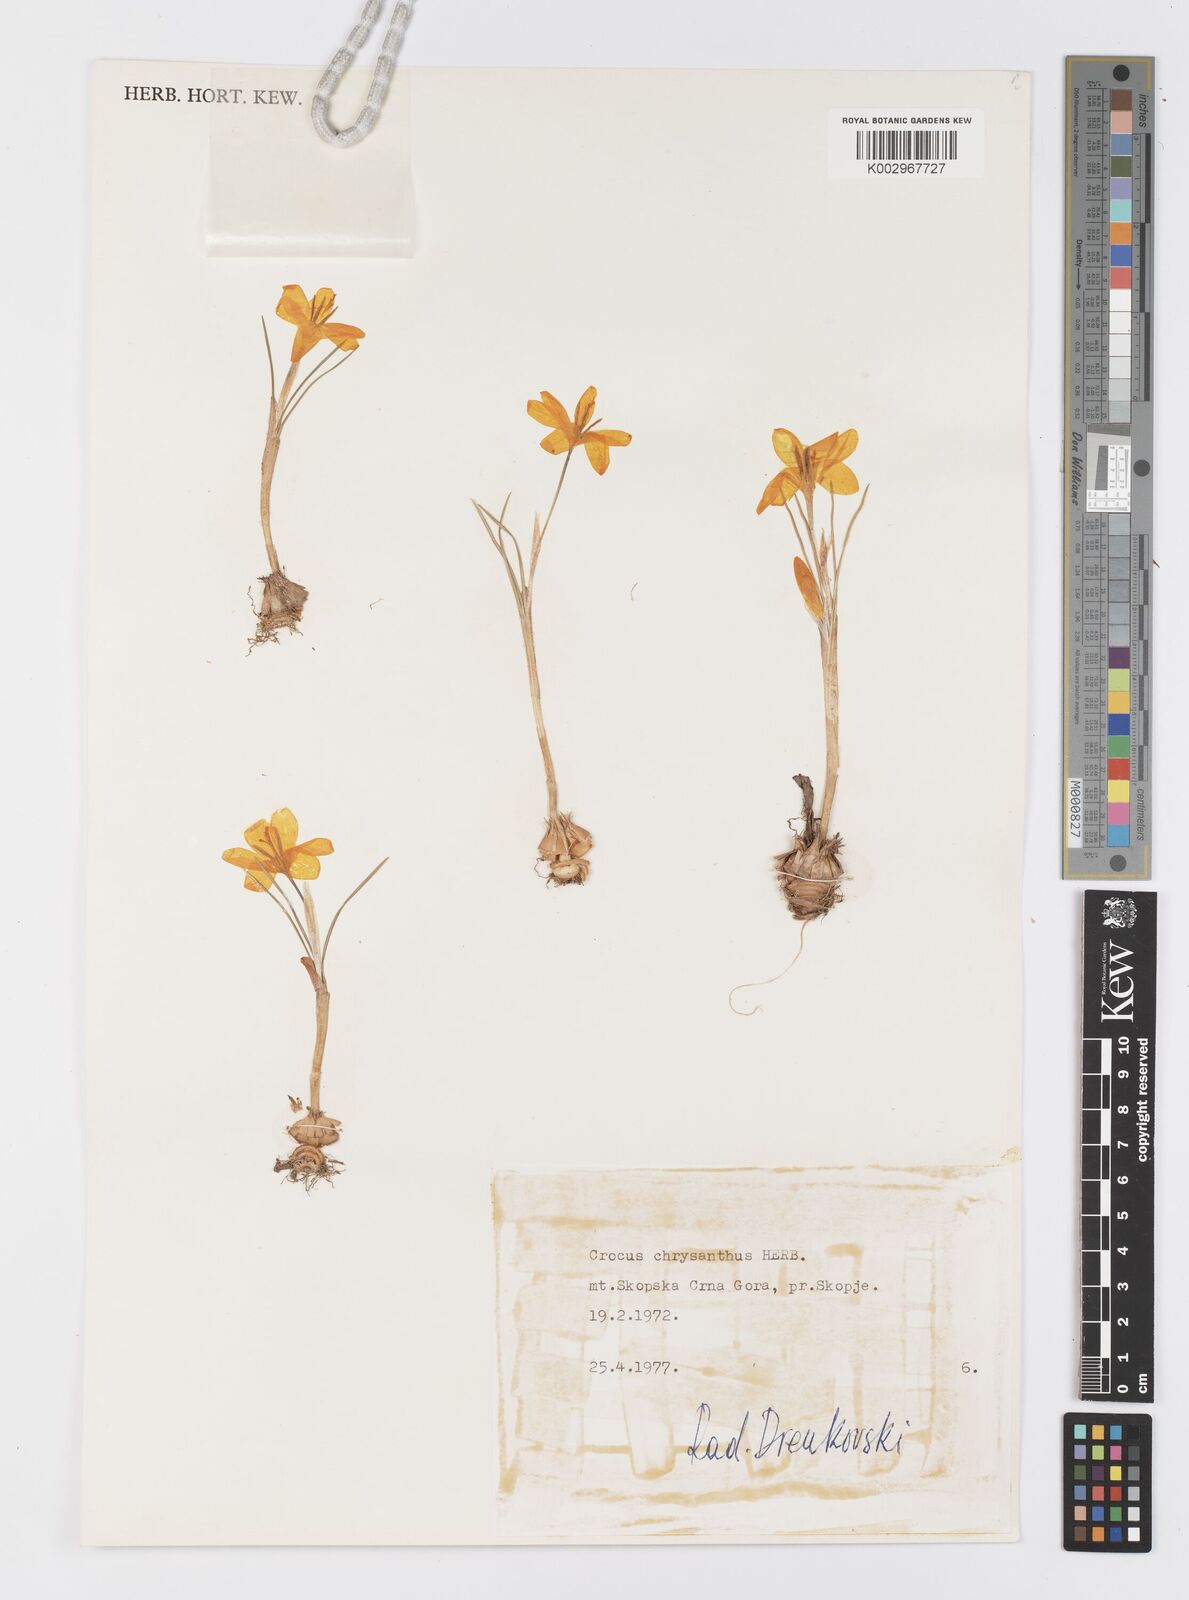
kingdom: Plantae
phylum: Tracheophyta
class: Liliopsida
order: Asparagales
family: Iridaceae
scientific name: Iridaceae
